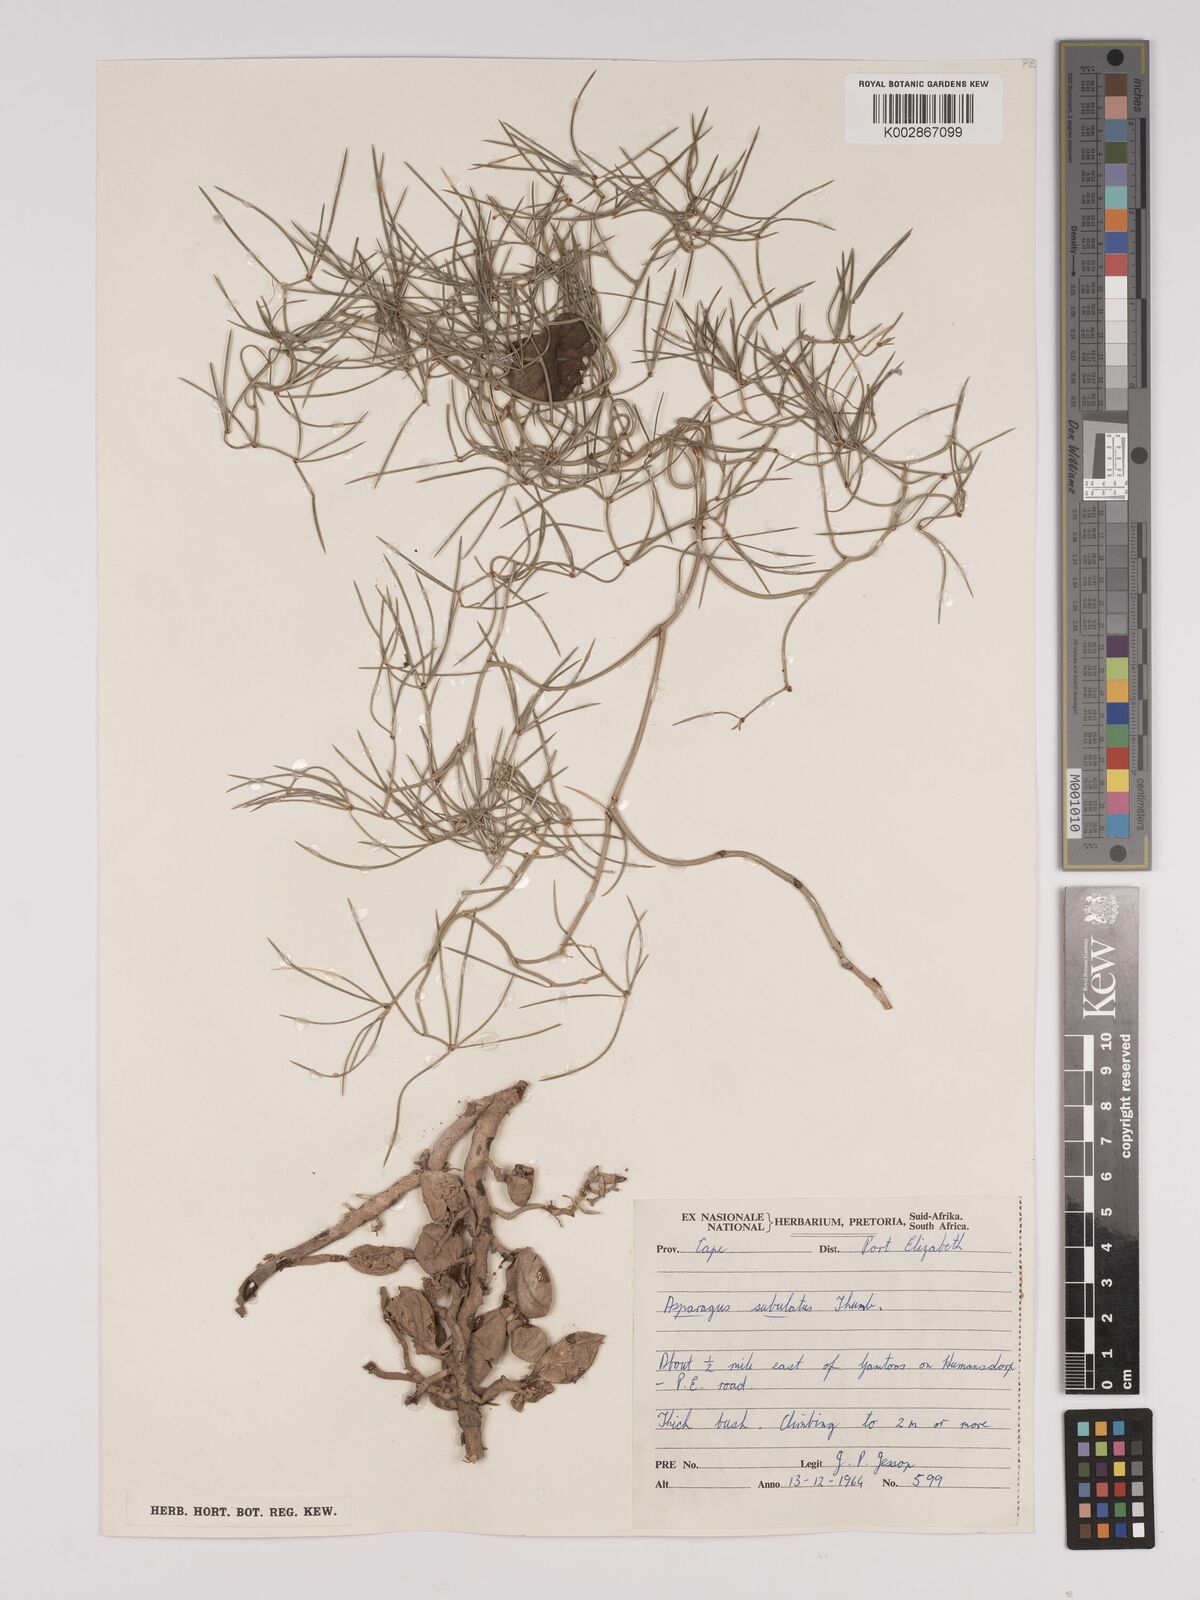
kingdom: Plantae
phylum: Tracheophyta
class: Liliopsida
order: Asparagales
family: Asparagaceae
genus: Asparagus
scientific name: Asparagus subulatus
